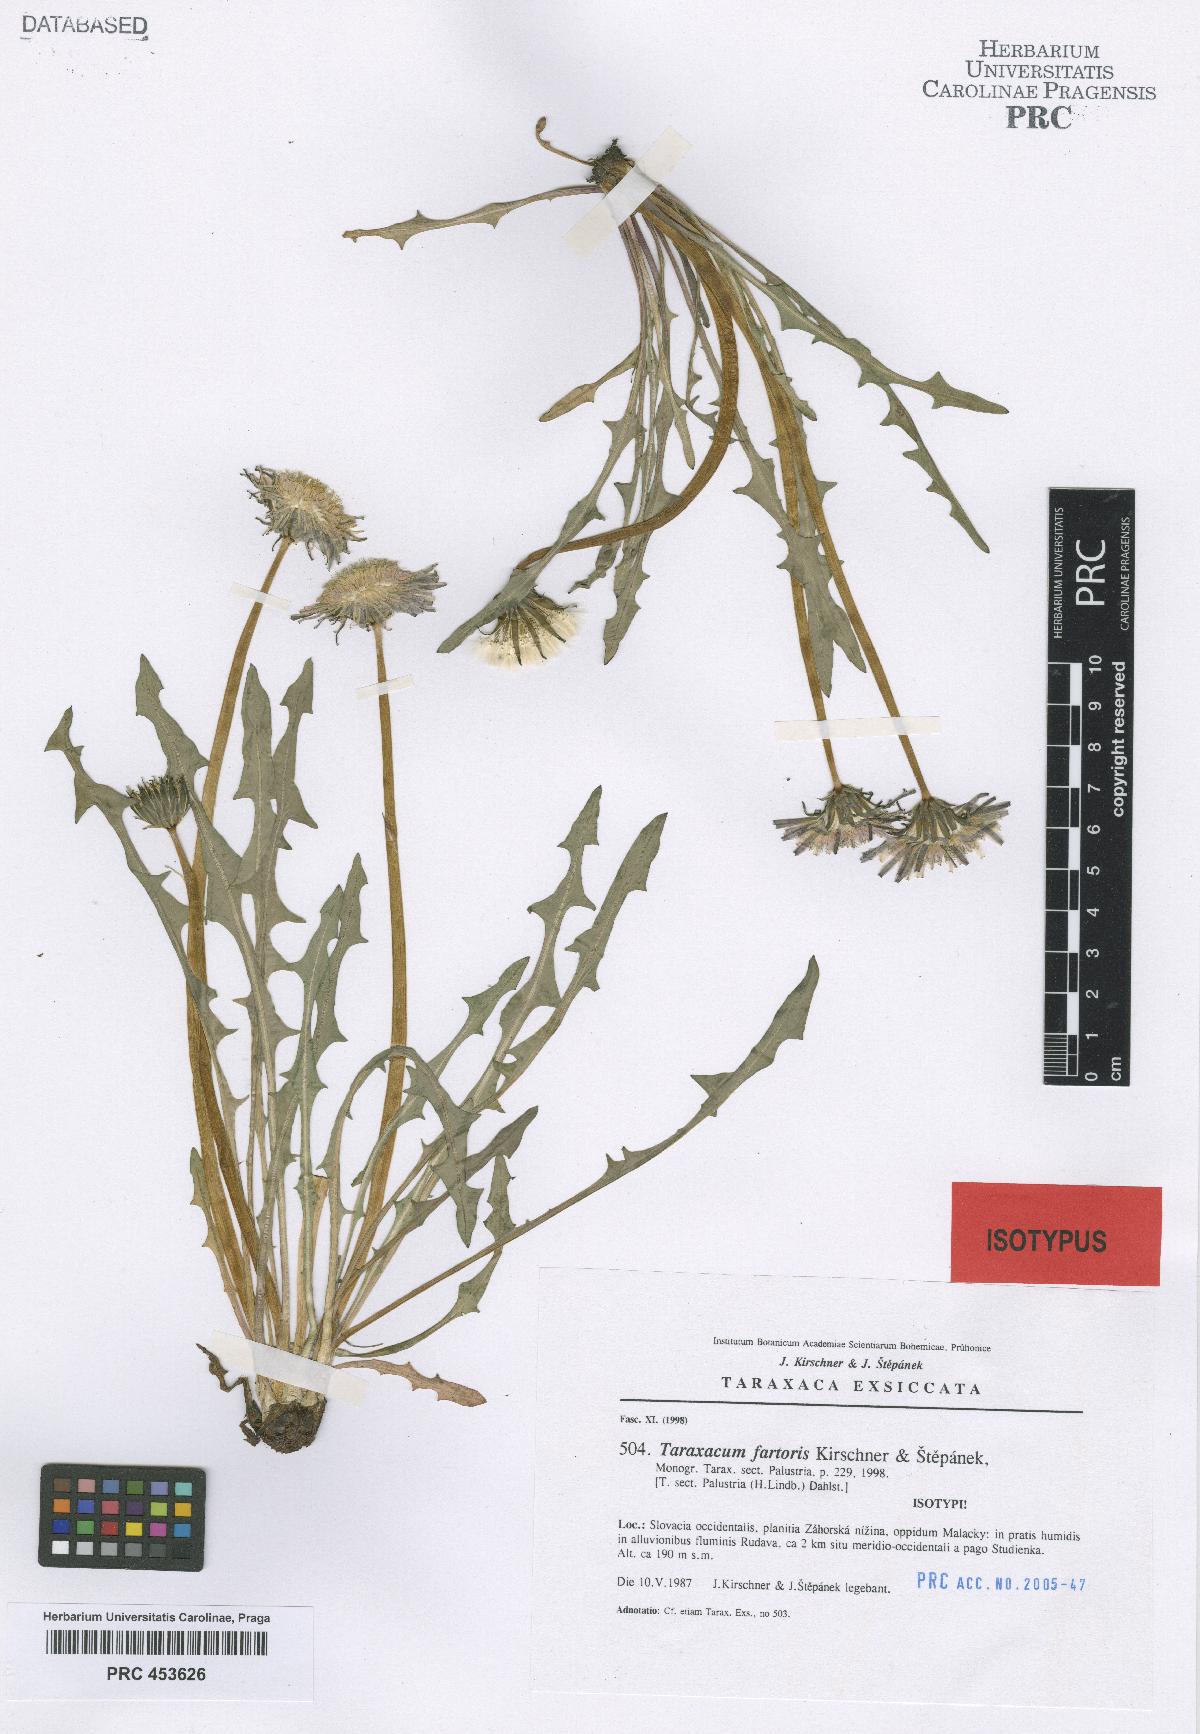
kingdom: Plantae
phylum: Tracheophyta
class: Magnoliopsida
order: Asterales
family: Asteraceae
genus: Taraxacum
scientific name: Taraxacum fartoris
